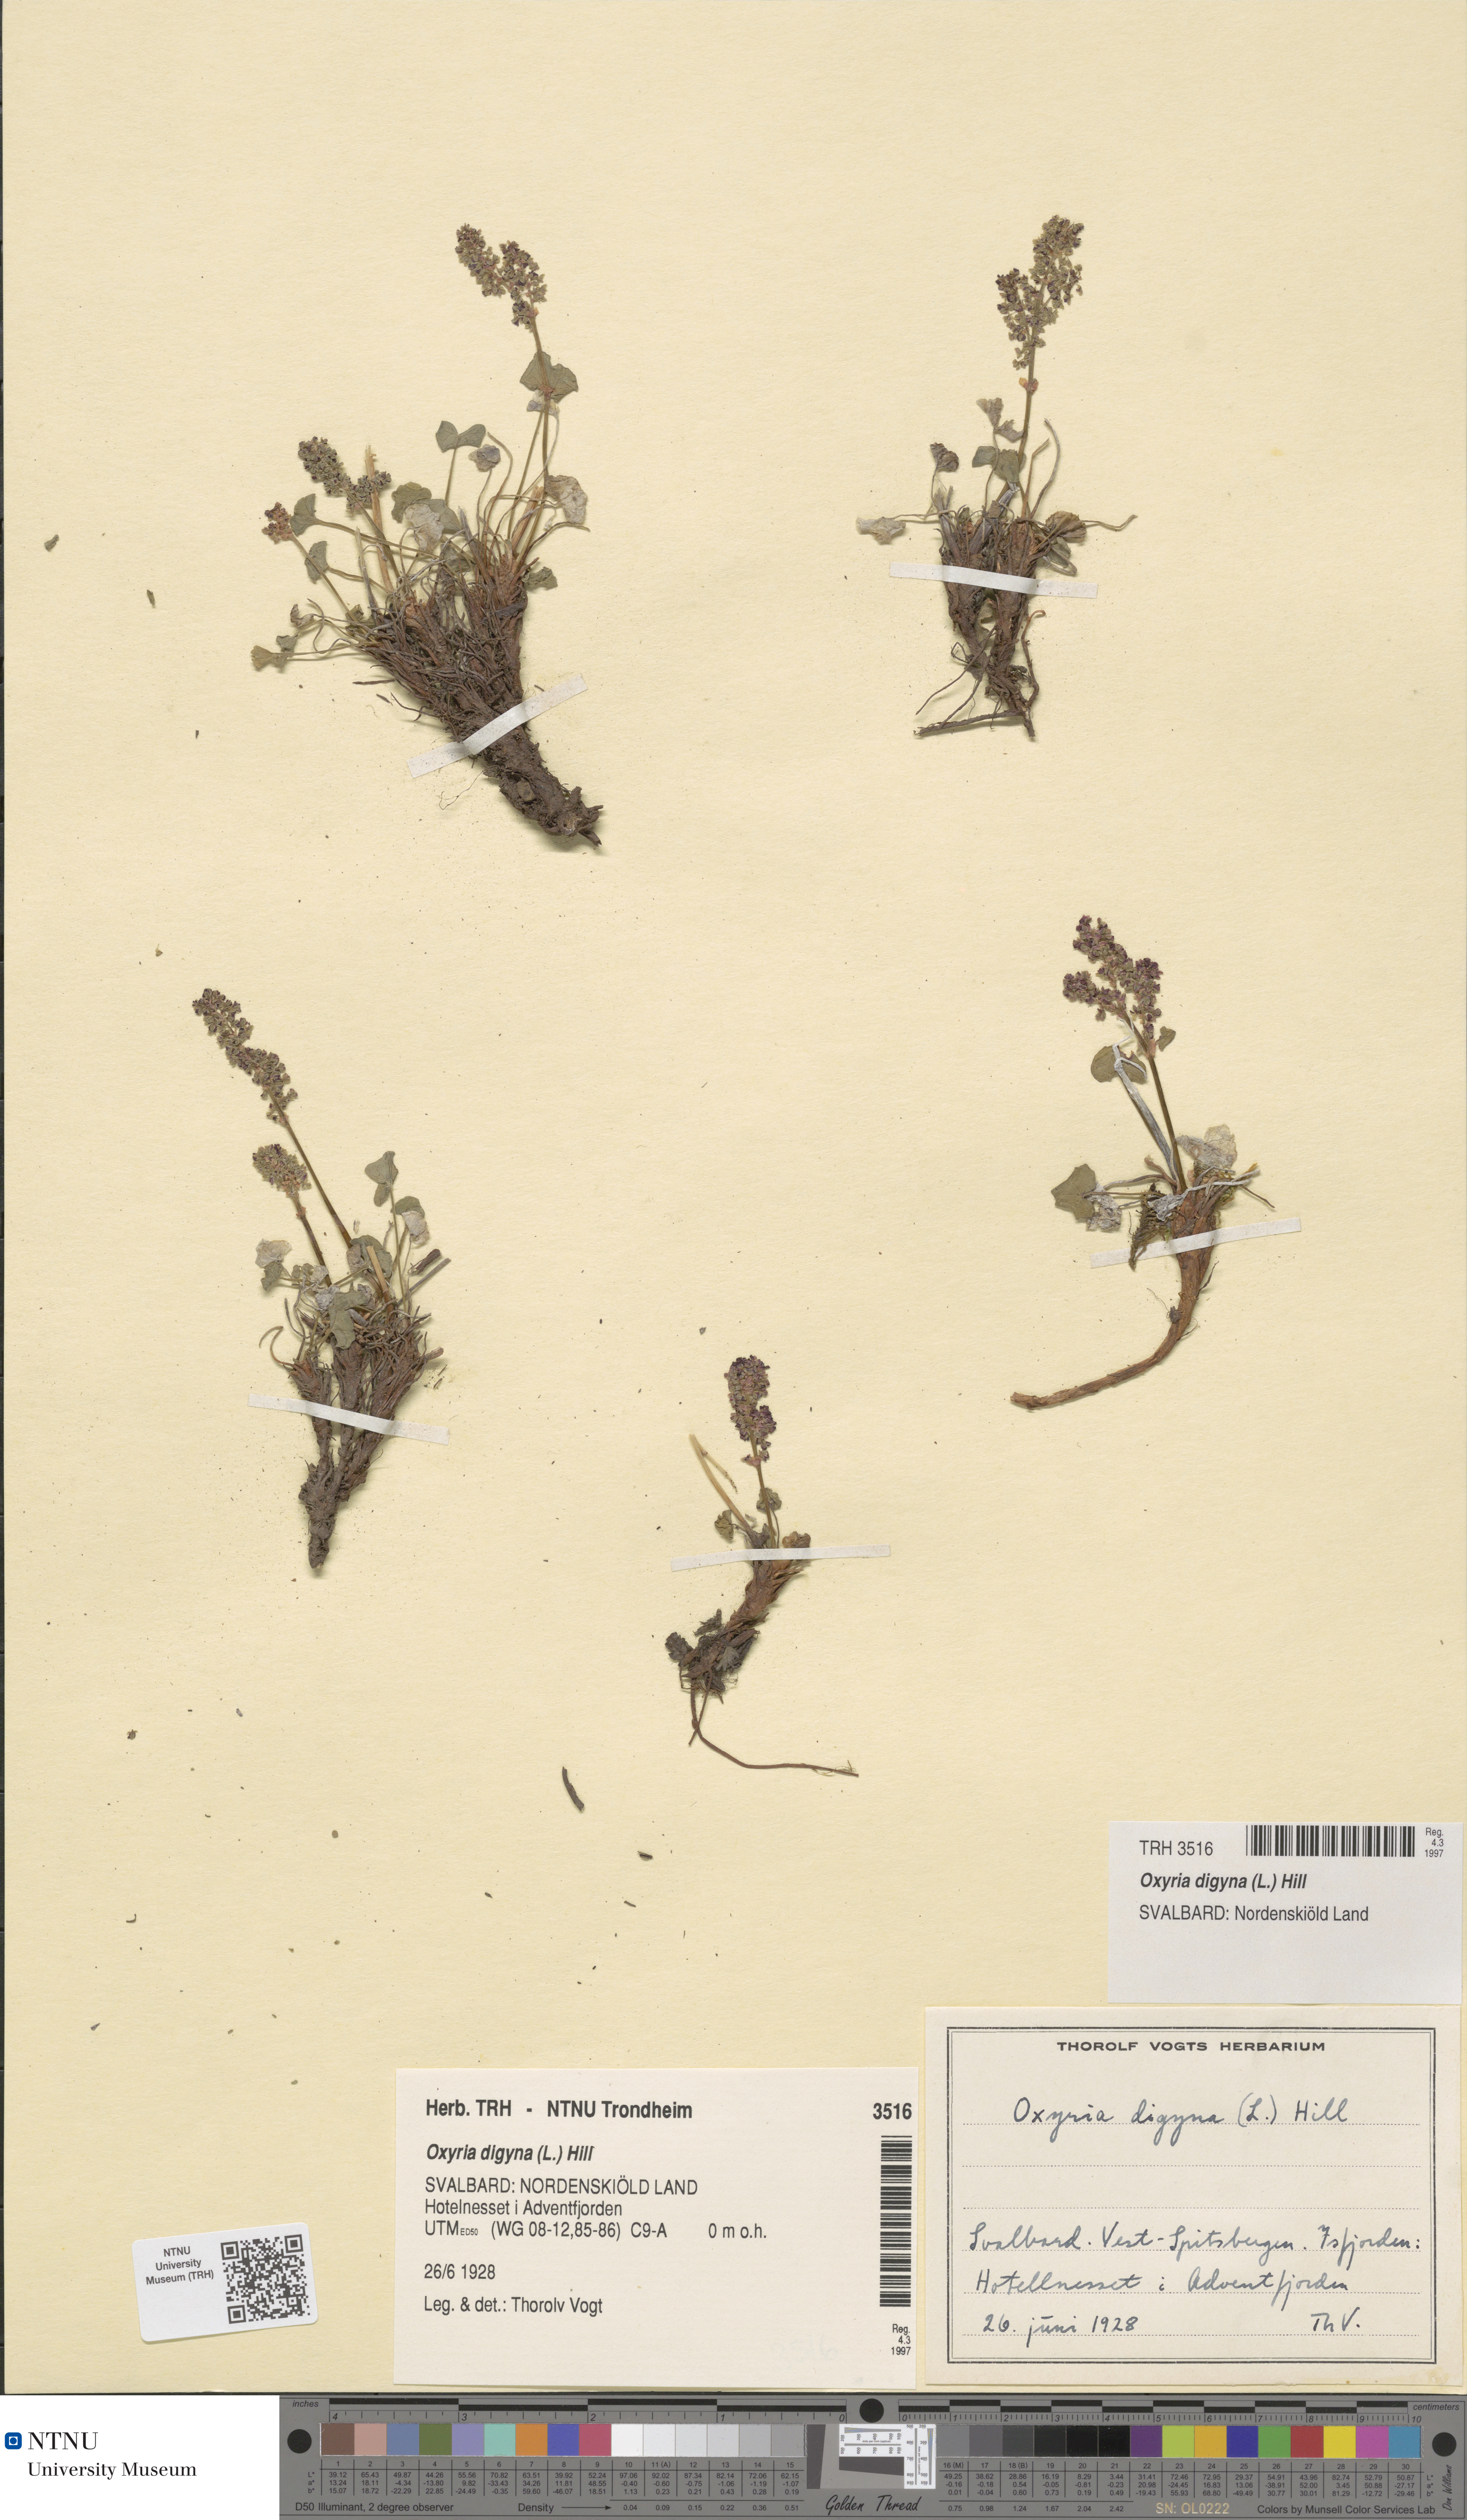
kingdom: Plantae
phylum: Tracheophyta
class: Magnoliopsida
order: Caryophyllales
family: Polygonaceae
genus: Oxyria
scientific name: Oxyria digyna
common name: Alpine mountain-sorrel
